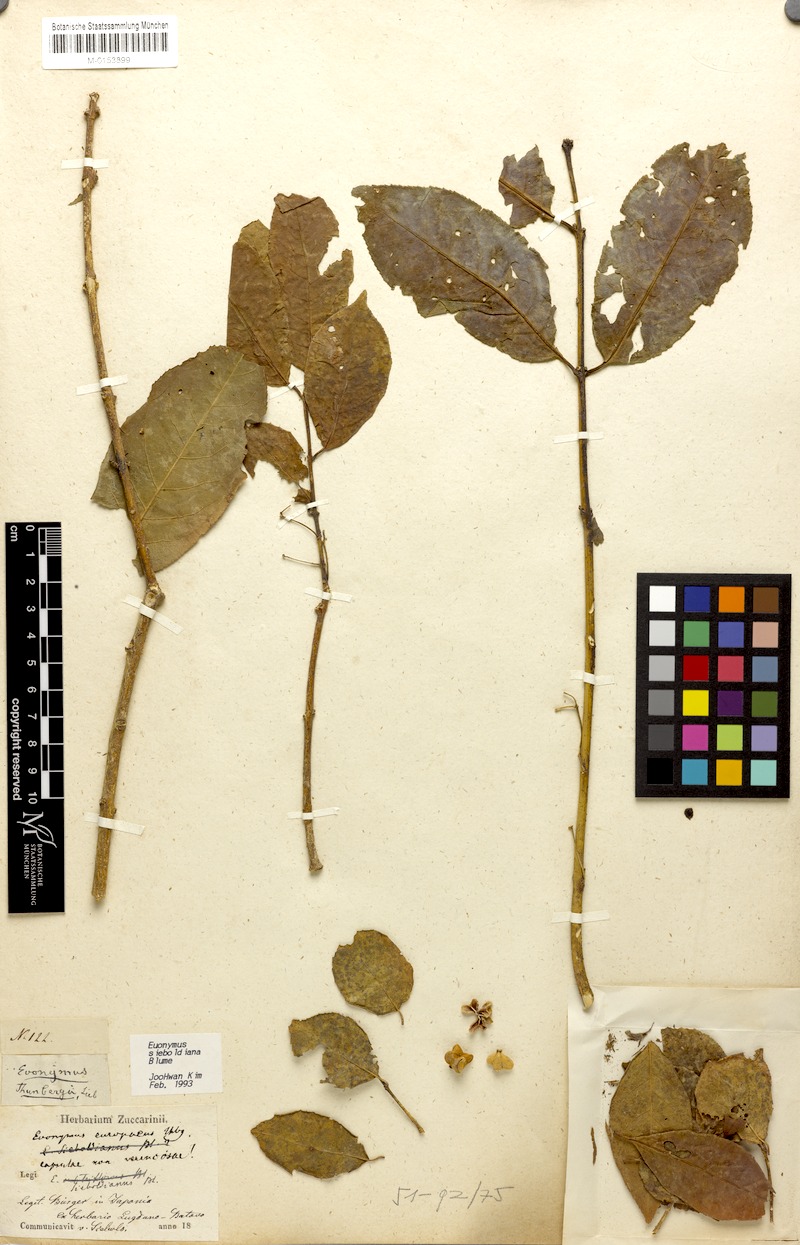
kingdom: Plantae
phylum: Tracheophyta
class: Magnoliopsida
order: Celastrales
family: Celastraceae
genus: Euonymus
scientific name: Euonymus hamiltonianus
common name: Hamilton's spindletree
